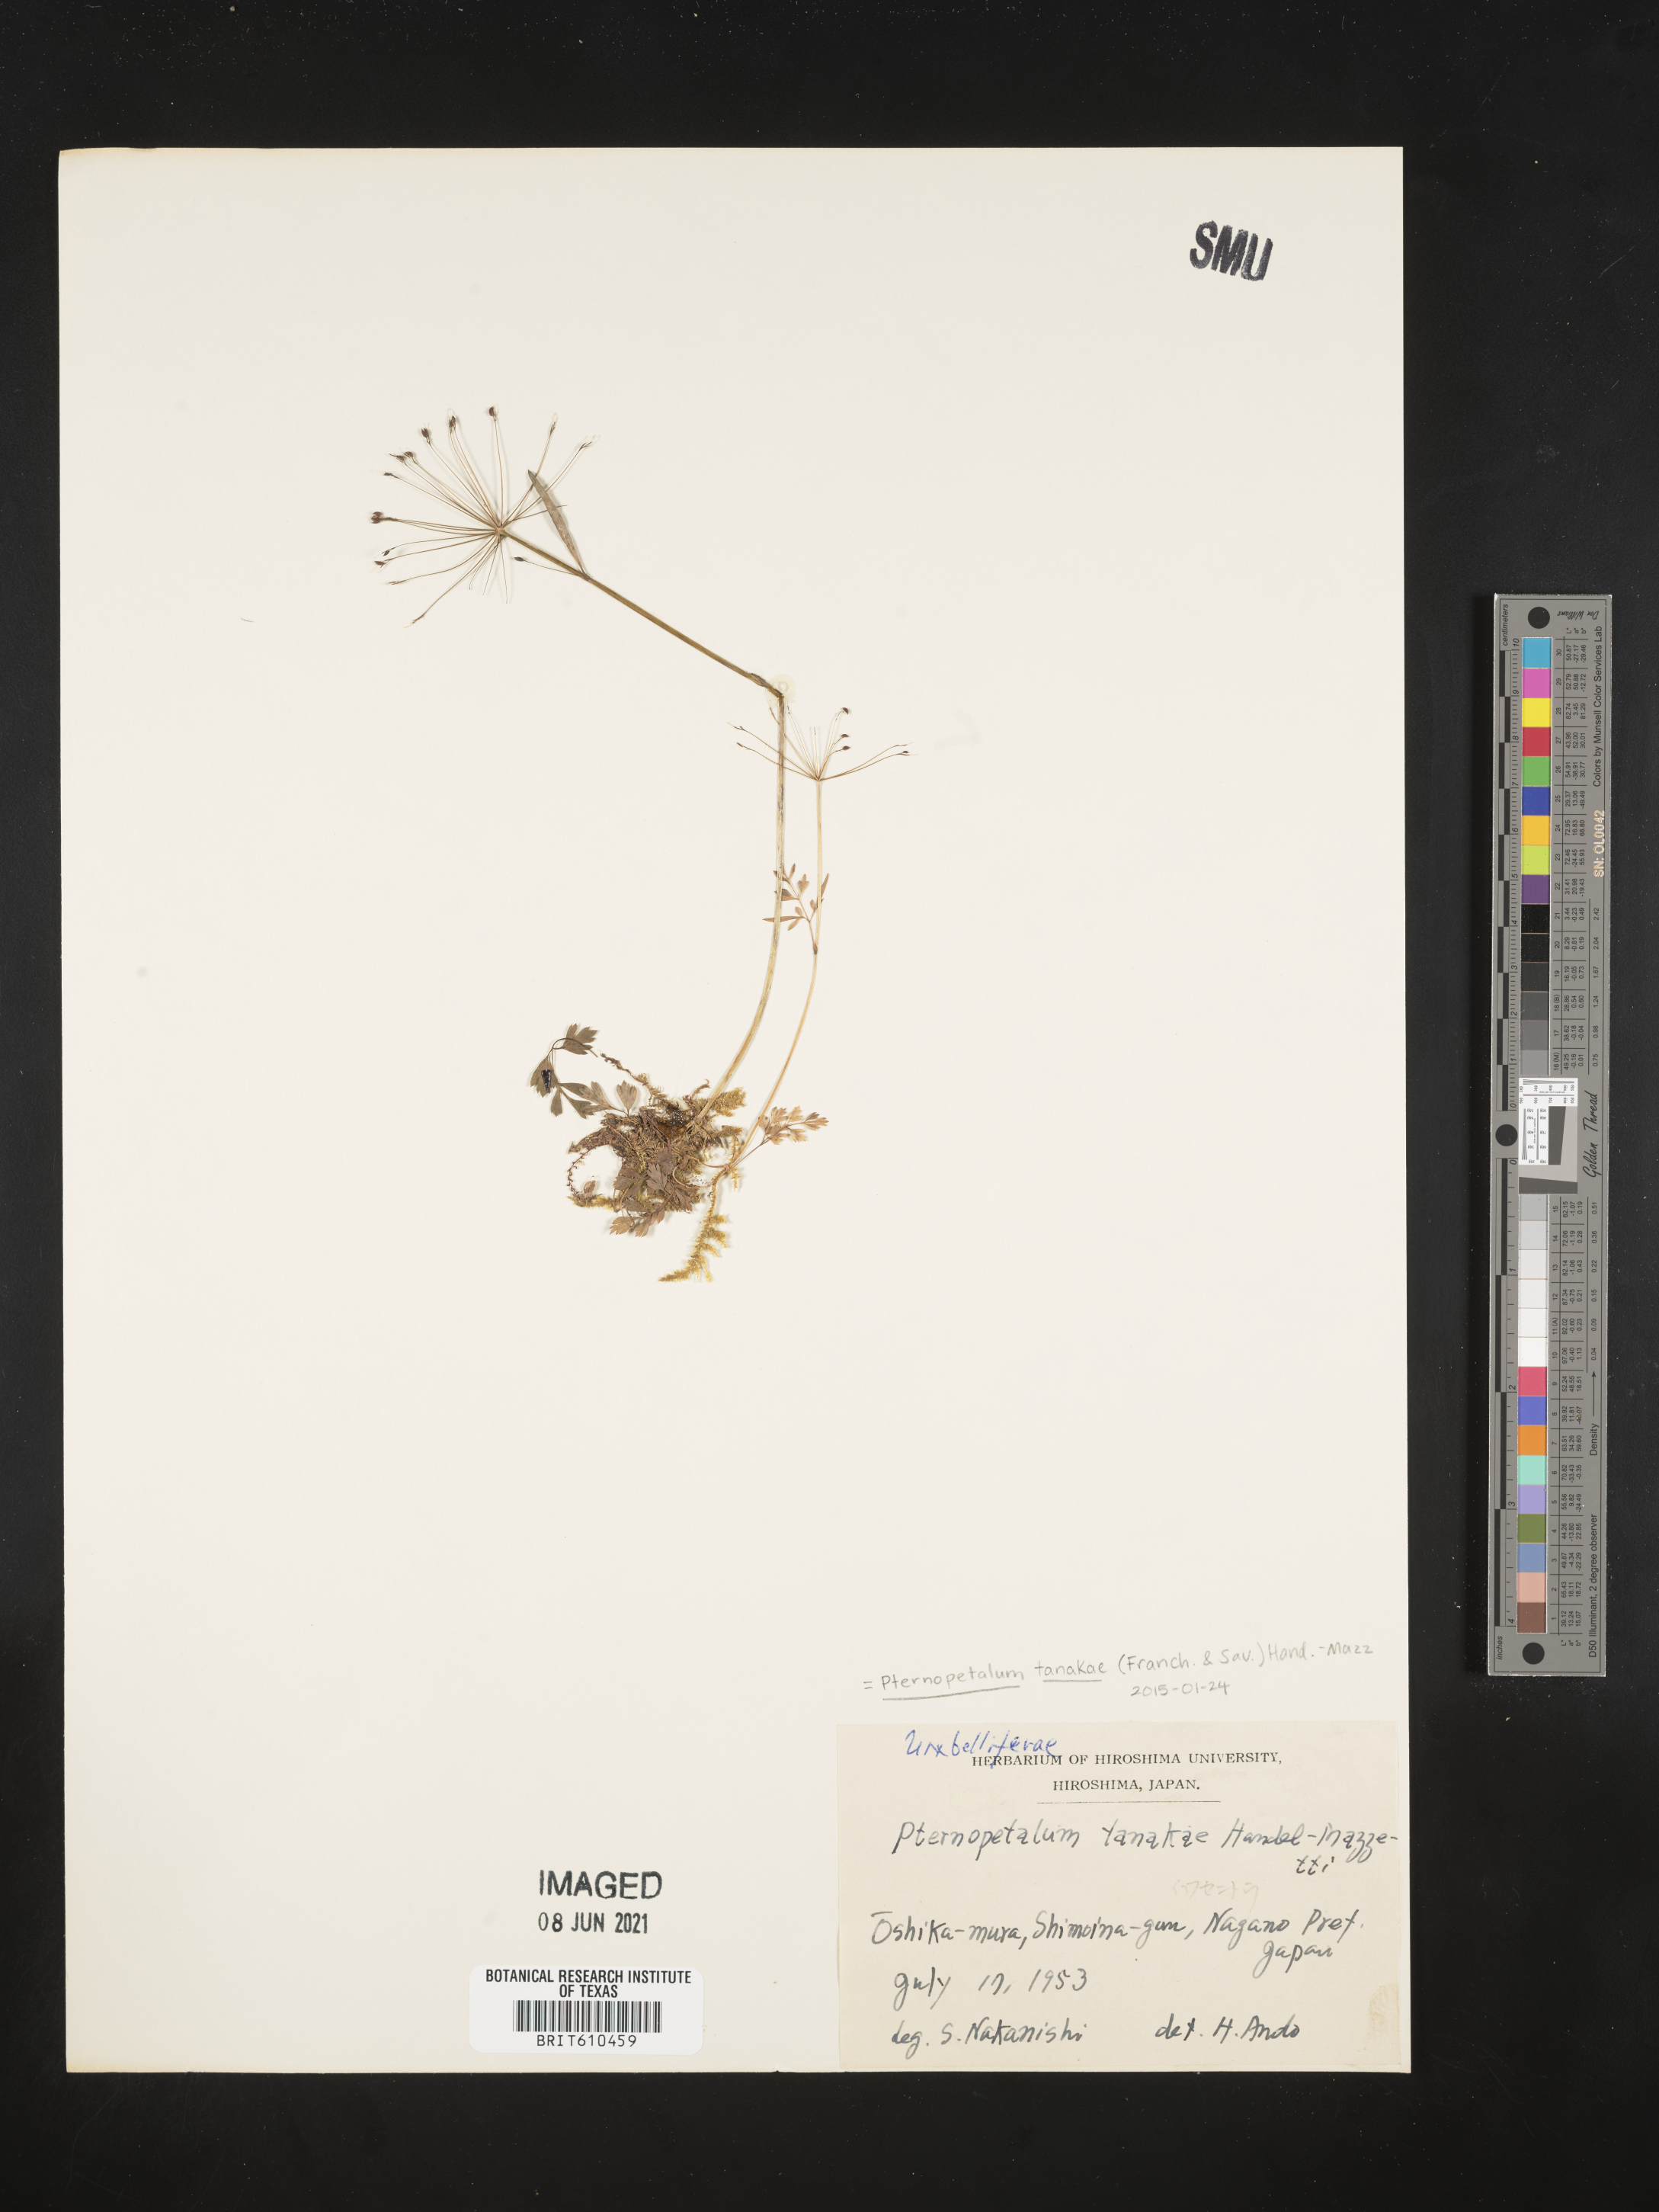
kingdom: Plantae
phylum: Tracheophyta
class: Magnoliopsida
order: Apiales
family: Apiaceae
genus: Pternopetalum
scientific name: Pternopetalum tanakae
